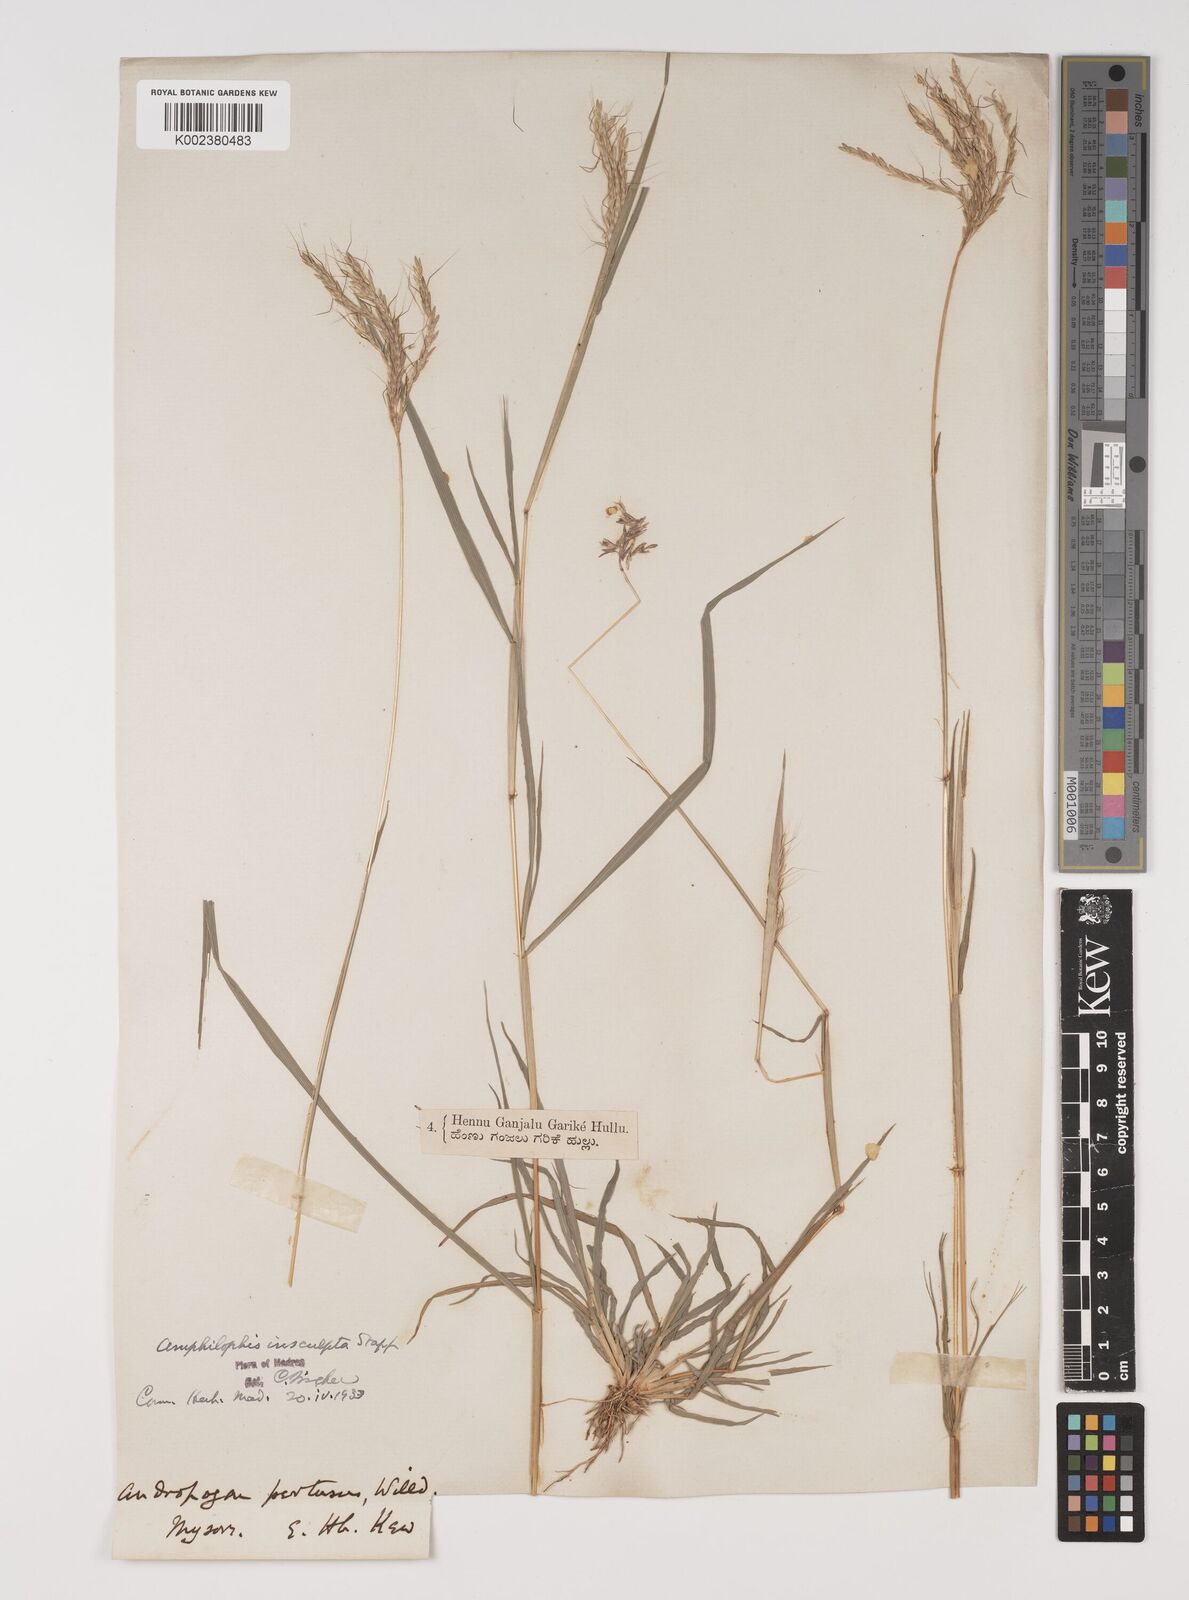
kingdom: Plantae
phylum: Tracheophyta
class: Liliopsida
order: Poales
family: Poaceae
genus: Bothriochloa
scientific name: Bothriochloa insculpta
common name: Creeping-bluegrass
